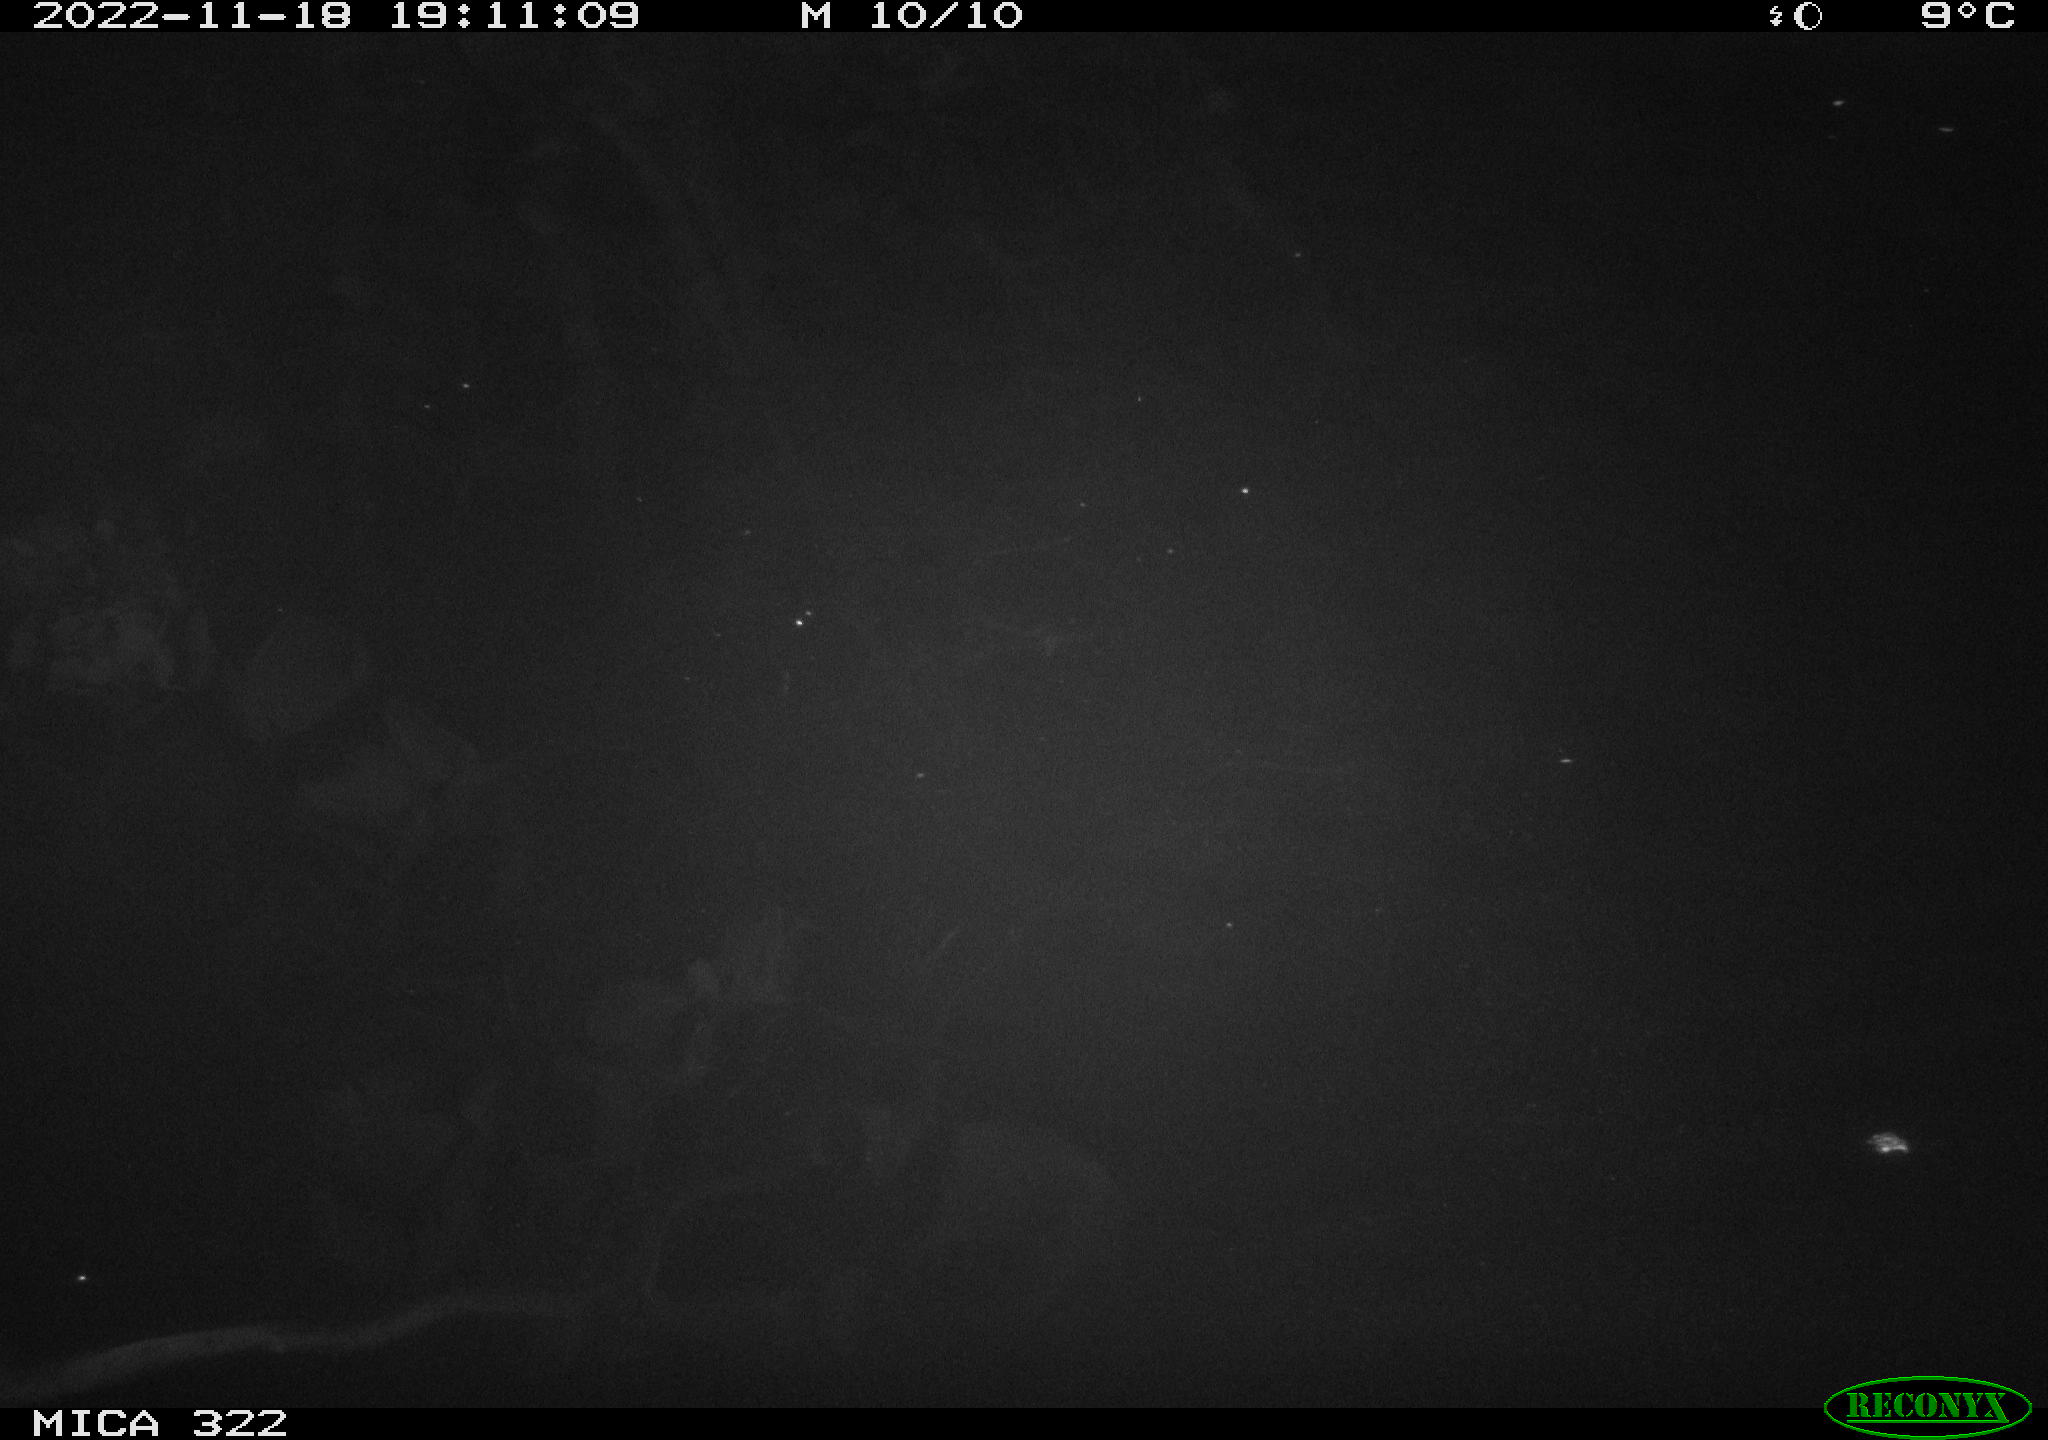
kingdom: Animalia
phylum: Chordata
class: Mammalia
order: Rodentia
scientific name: Rodentia
